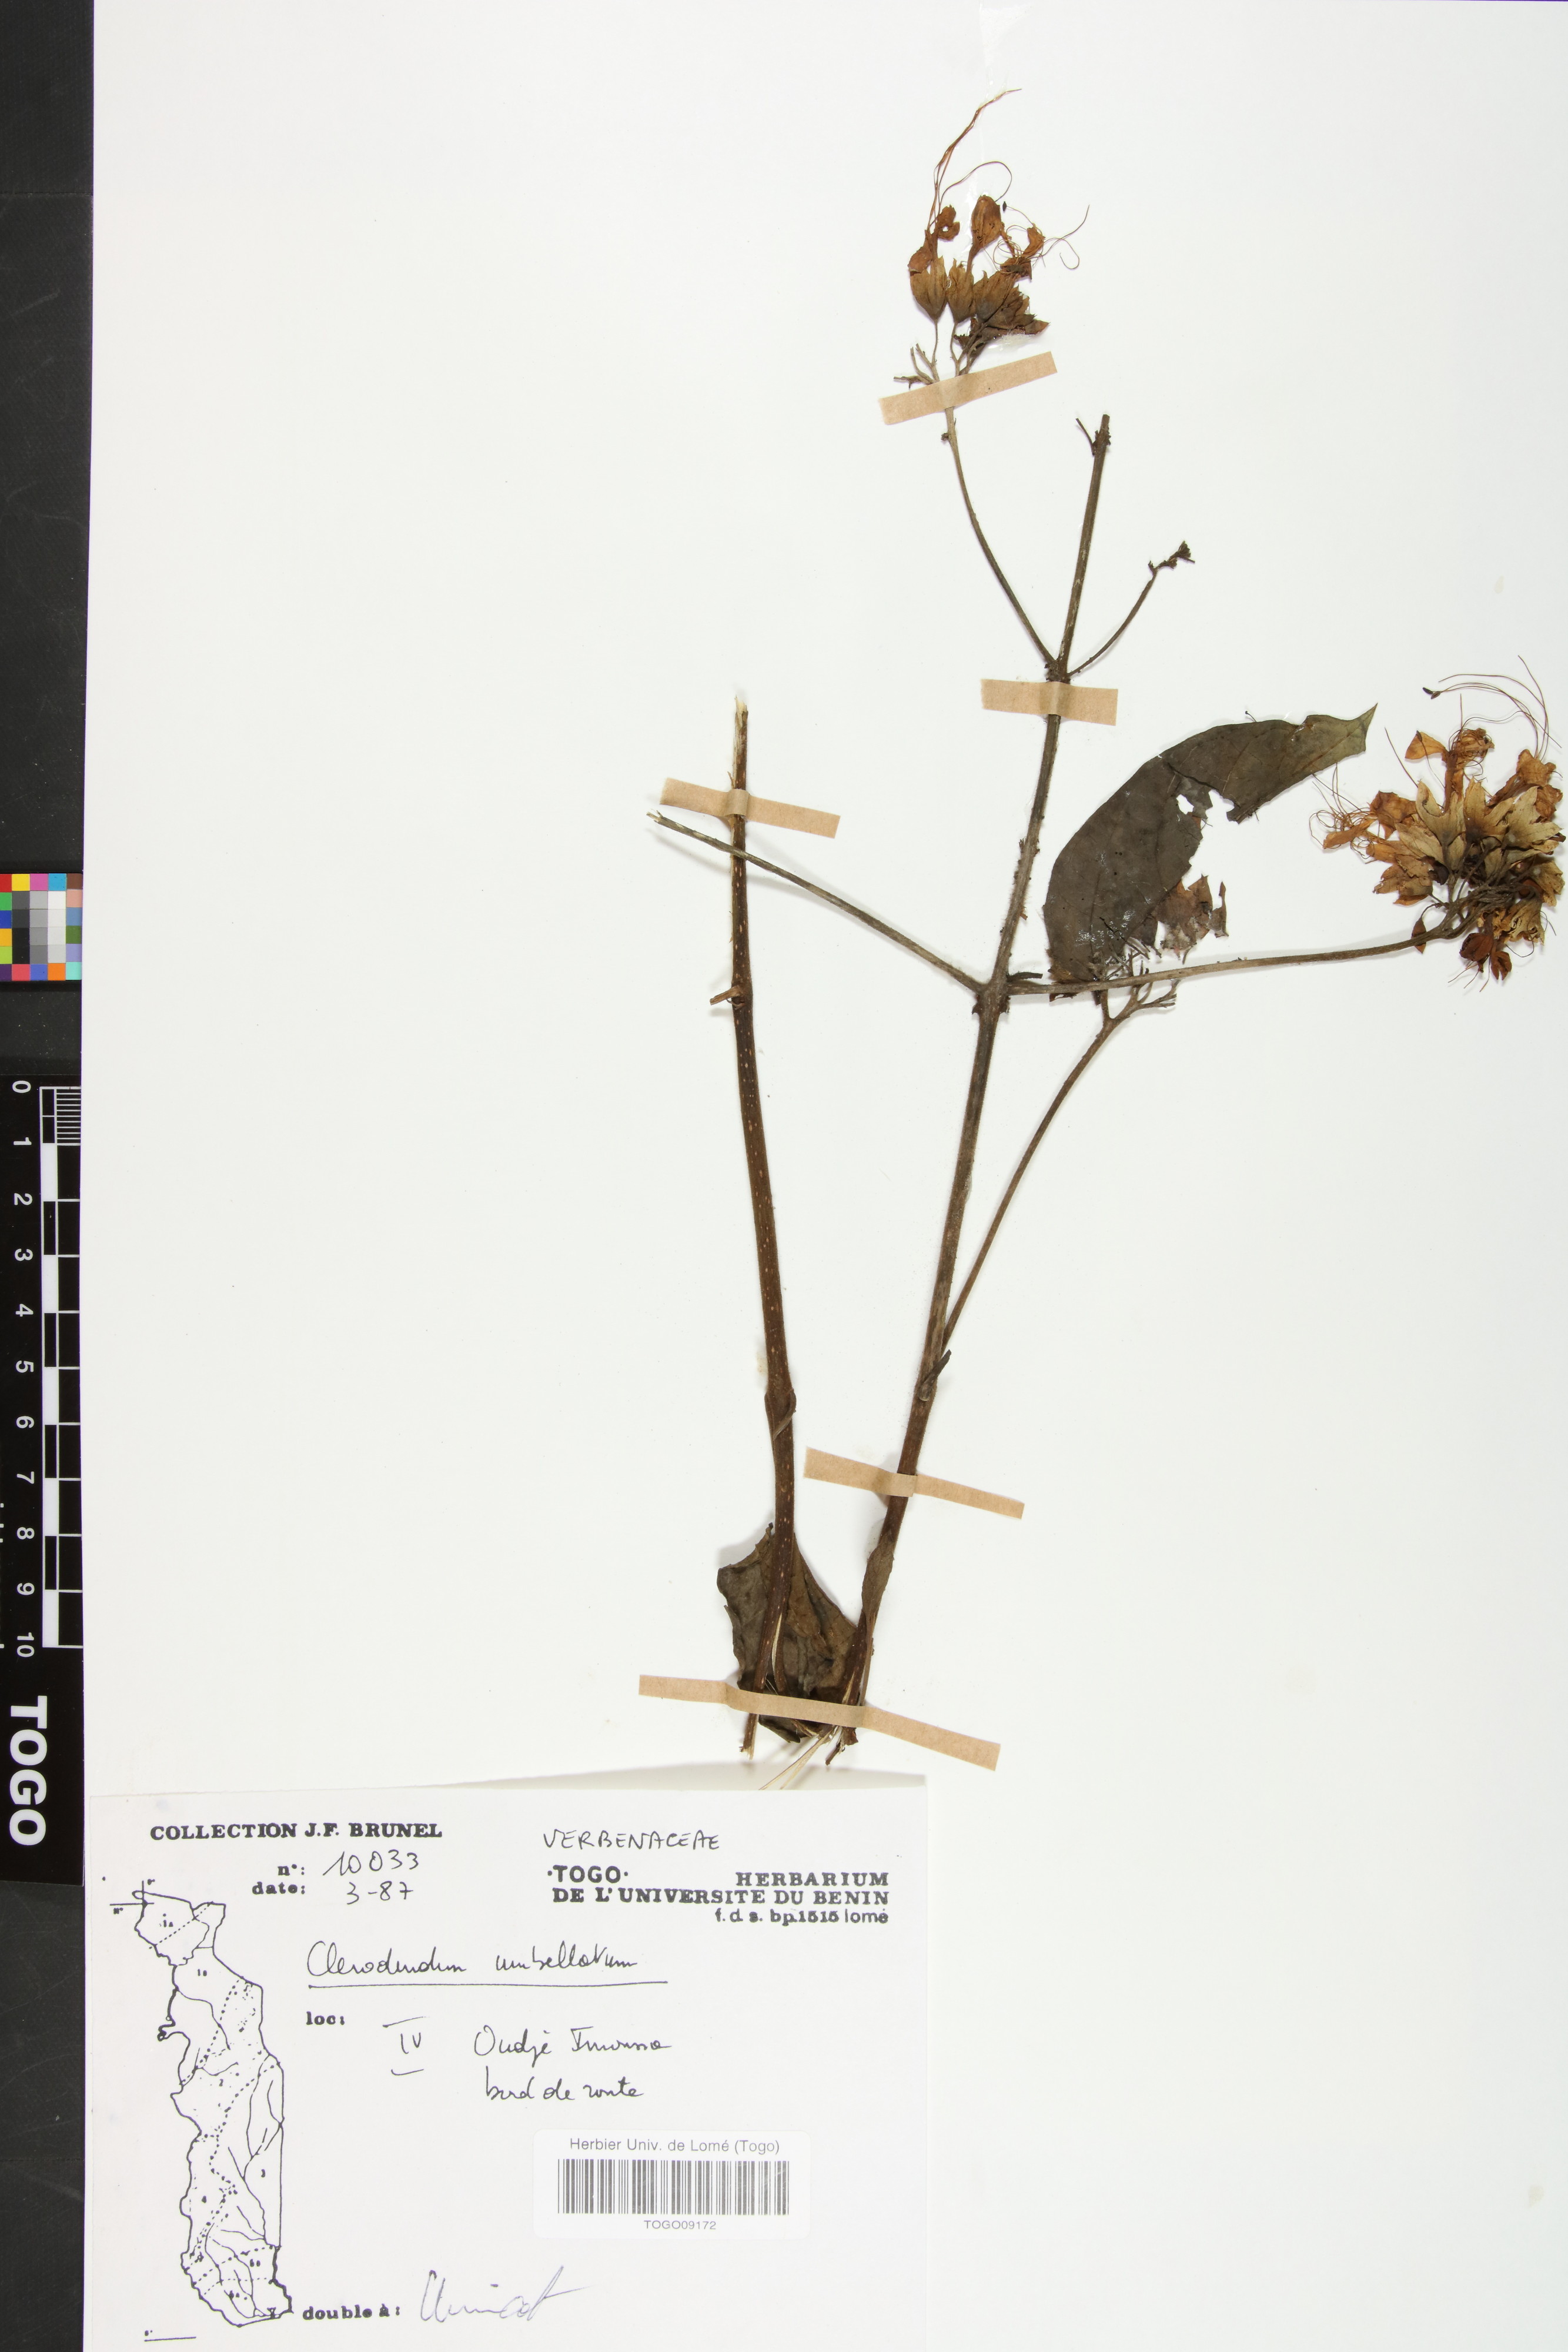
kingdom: Plantae
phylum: Tracheophyta
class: Magnoliopsida
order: Lamiales
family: Lamiaceae
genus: Clerodendrum
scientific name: Clerodendrum umbellatum
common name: Umbel clerodendrum
